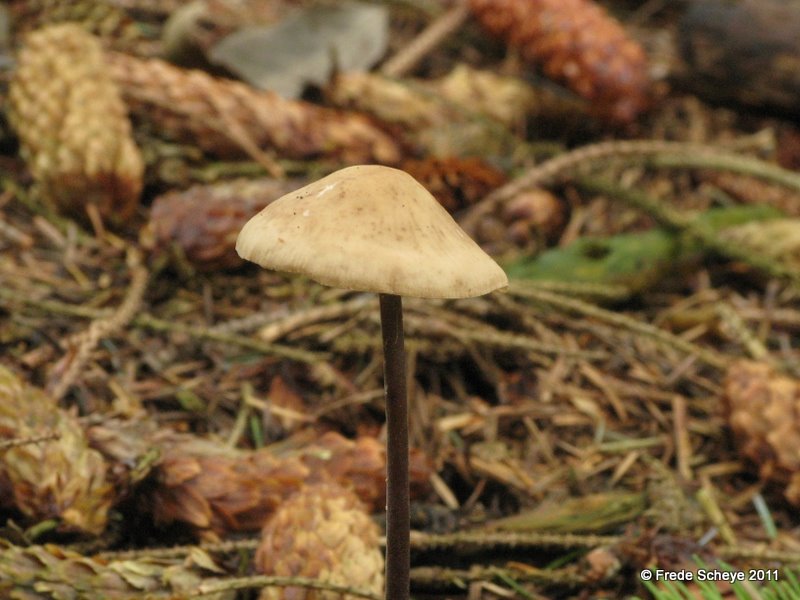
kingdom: Fungi
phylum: Basidiomycota
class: Agaricomycetes
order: Agaricales
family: Omphalotaceae
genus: Mycetinis
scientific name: Mycetinis alliaceus
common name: stor løghat
